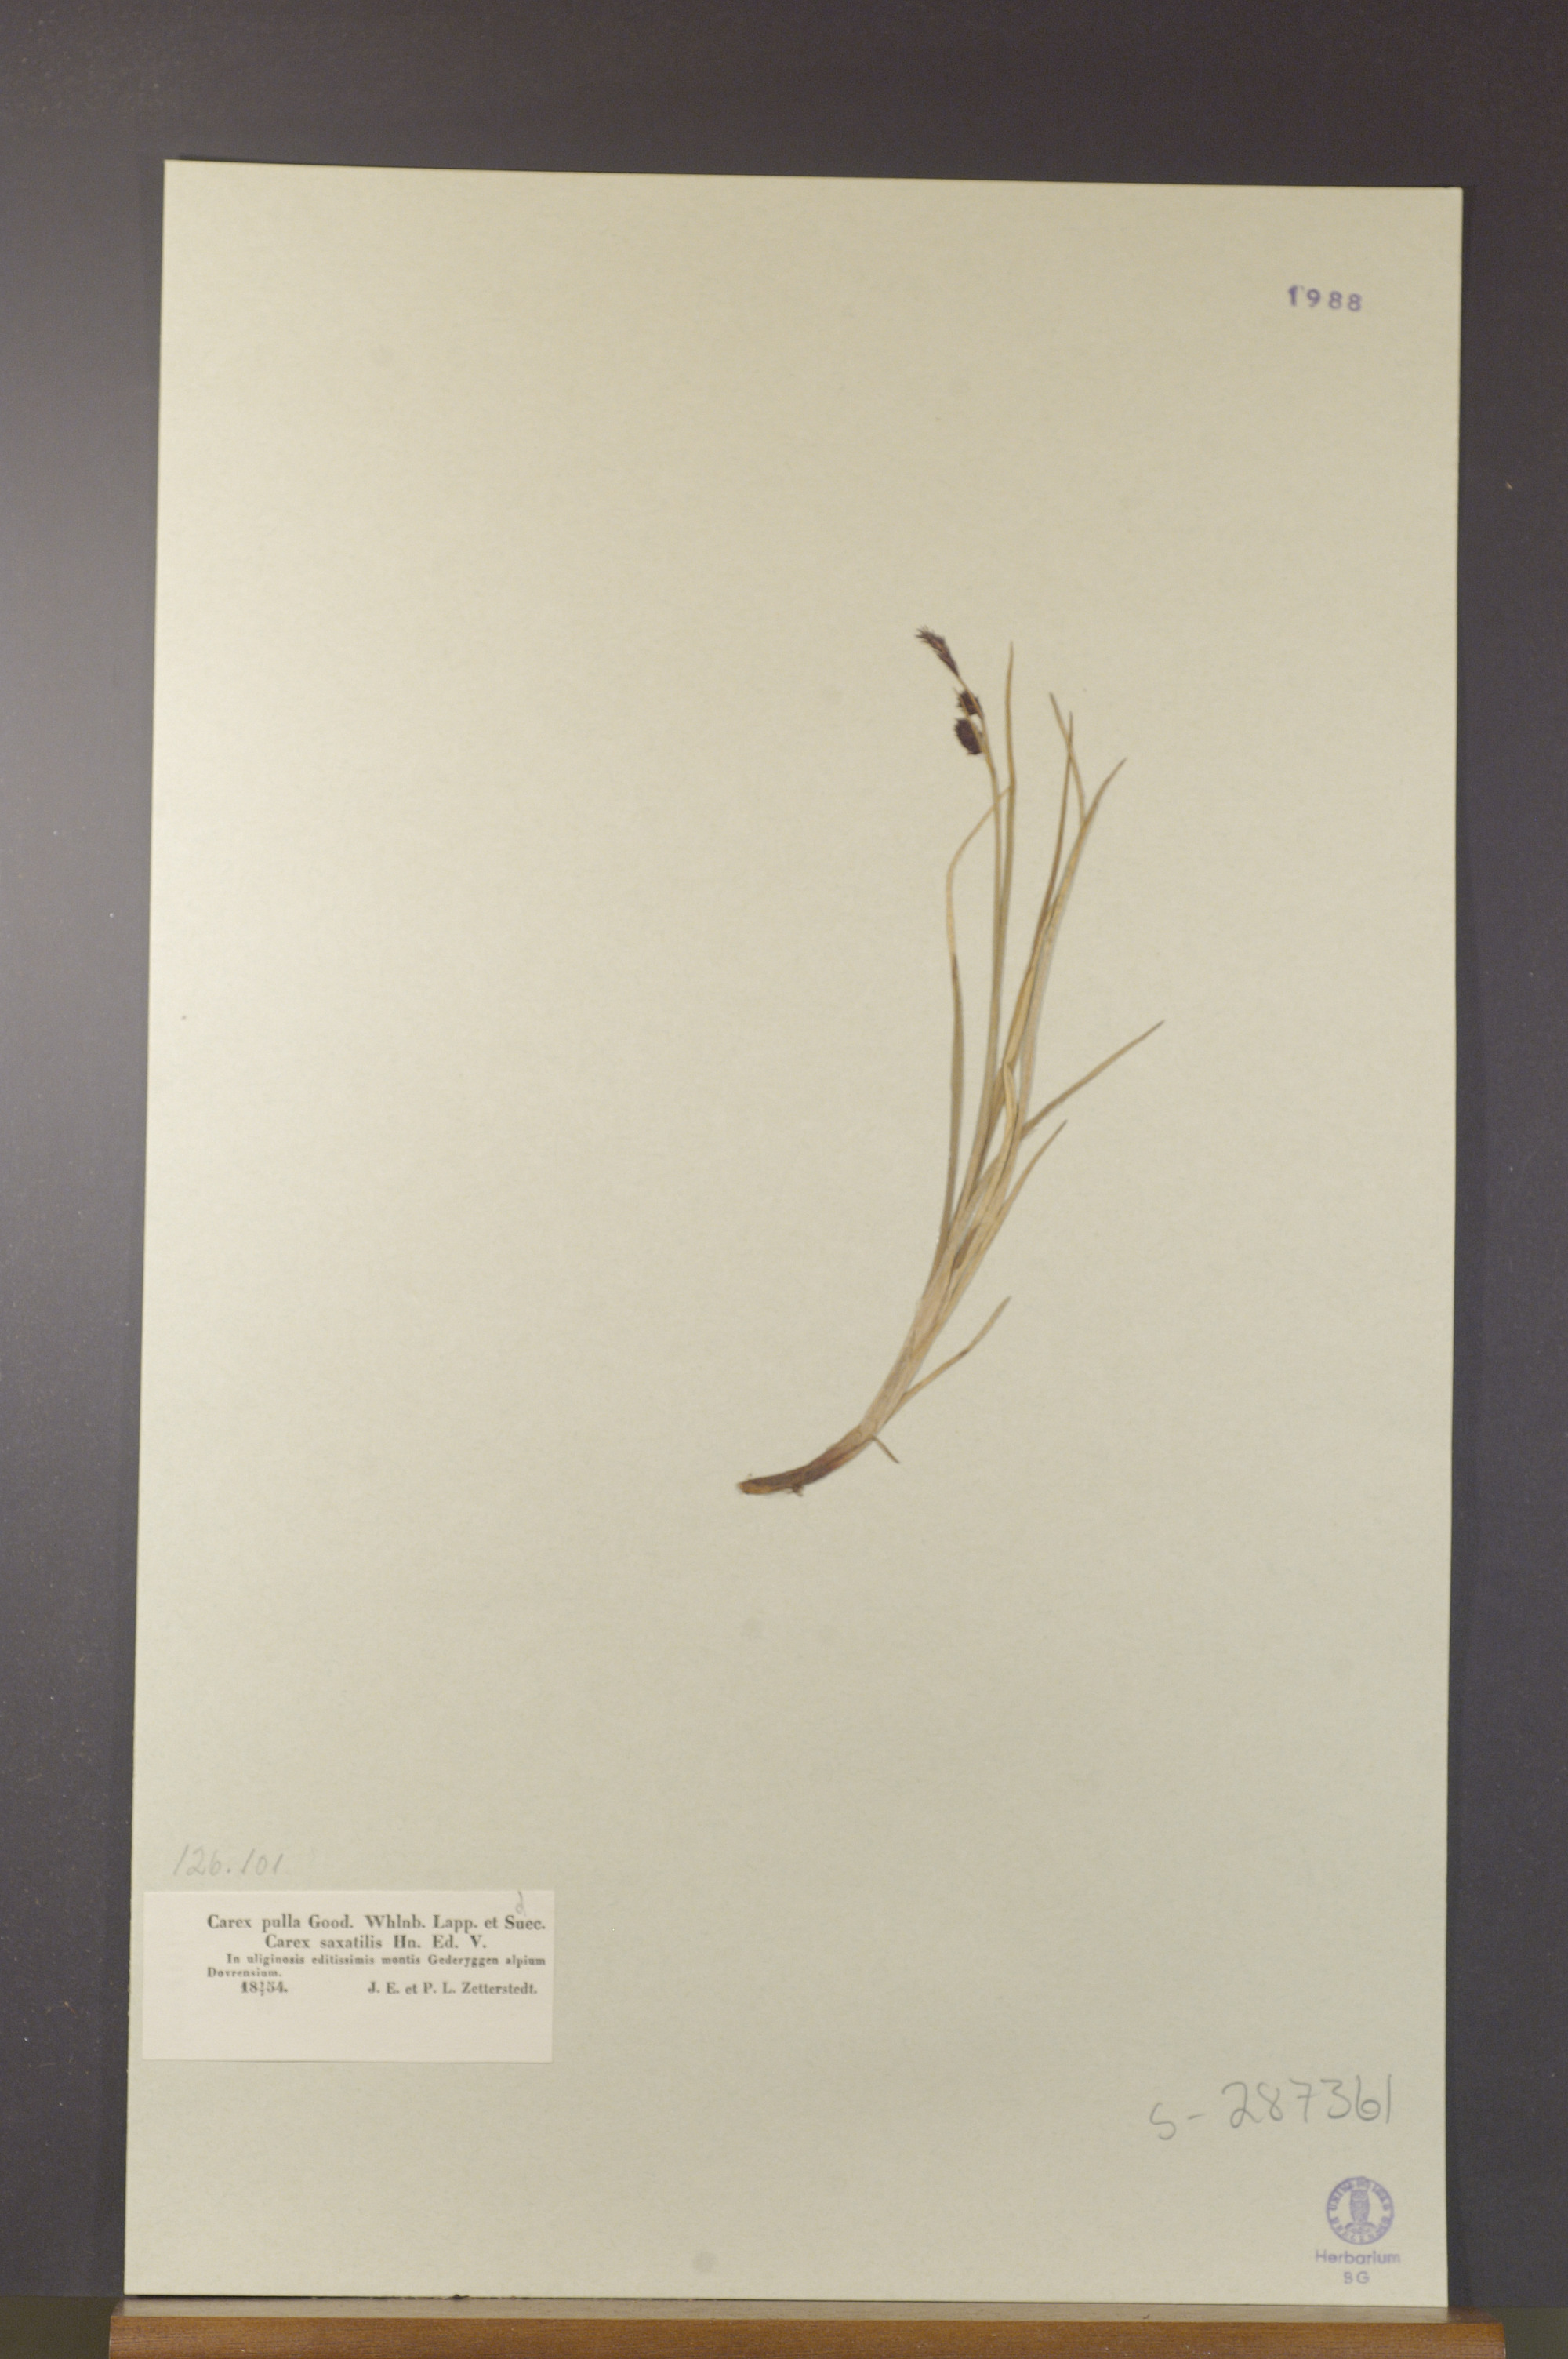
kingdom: Plantae
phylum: Tracheophyta
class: Liliopsida
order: Poales
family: Cyperaceae
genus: Carex
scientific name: Carex saxatilis
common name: Russet sedge
